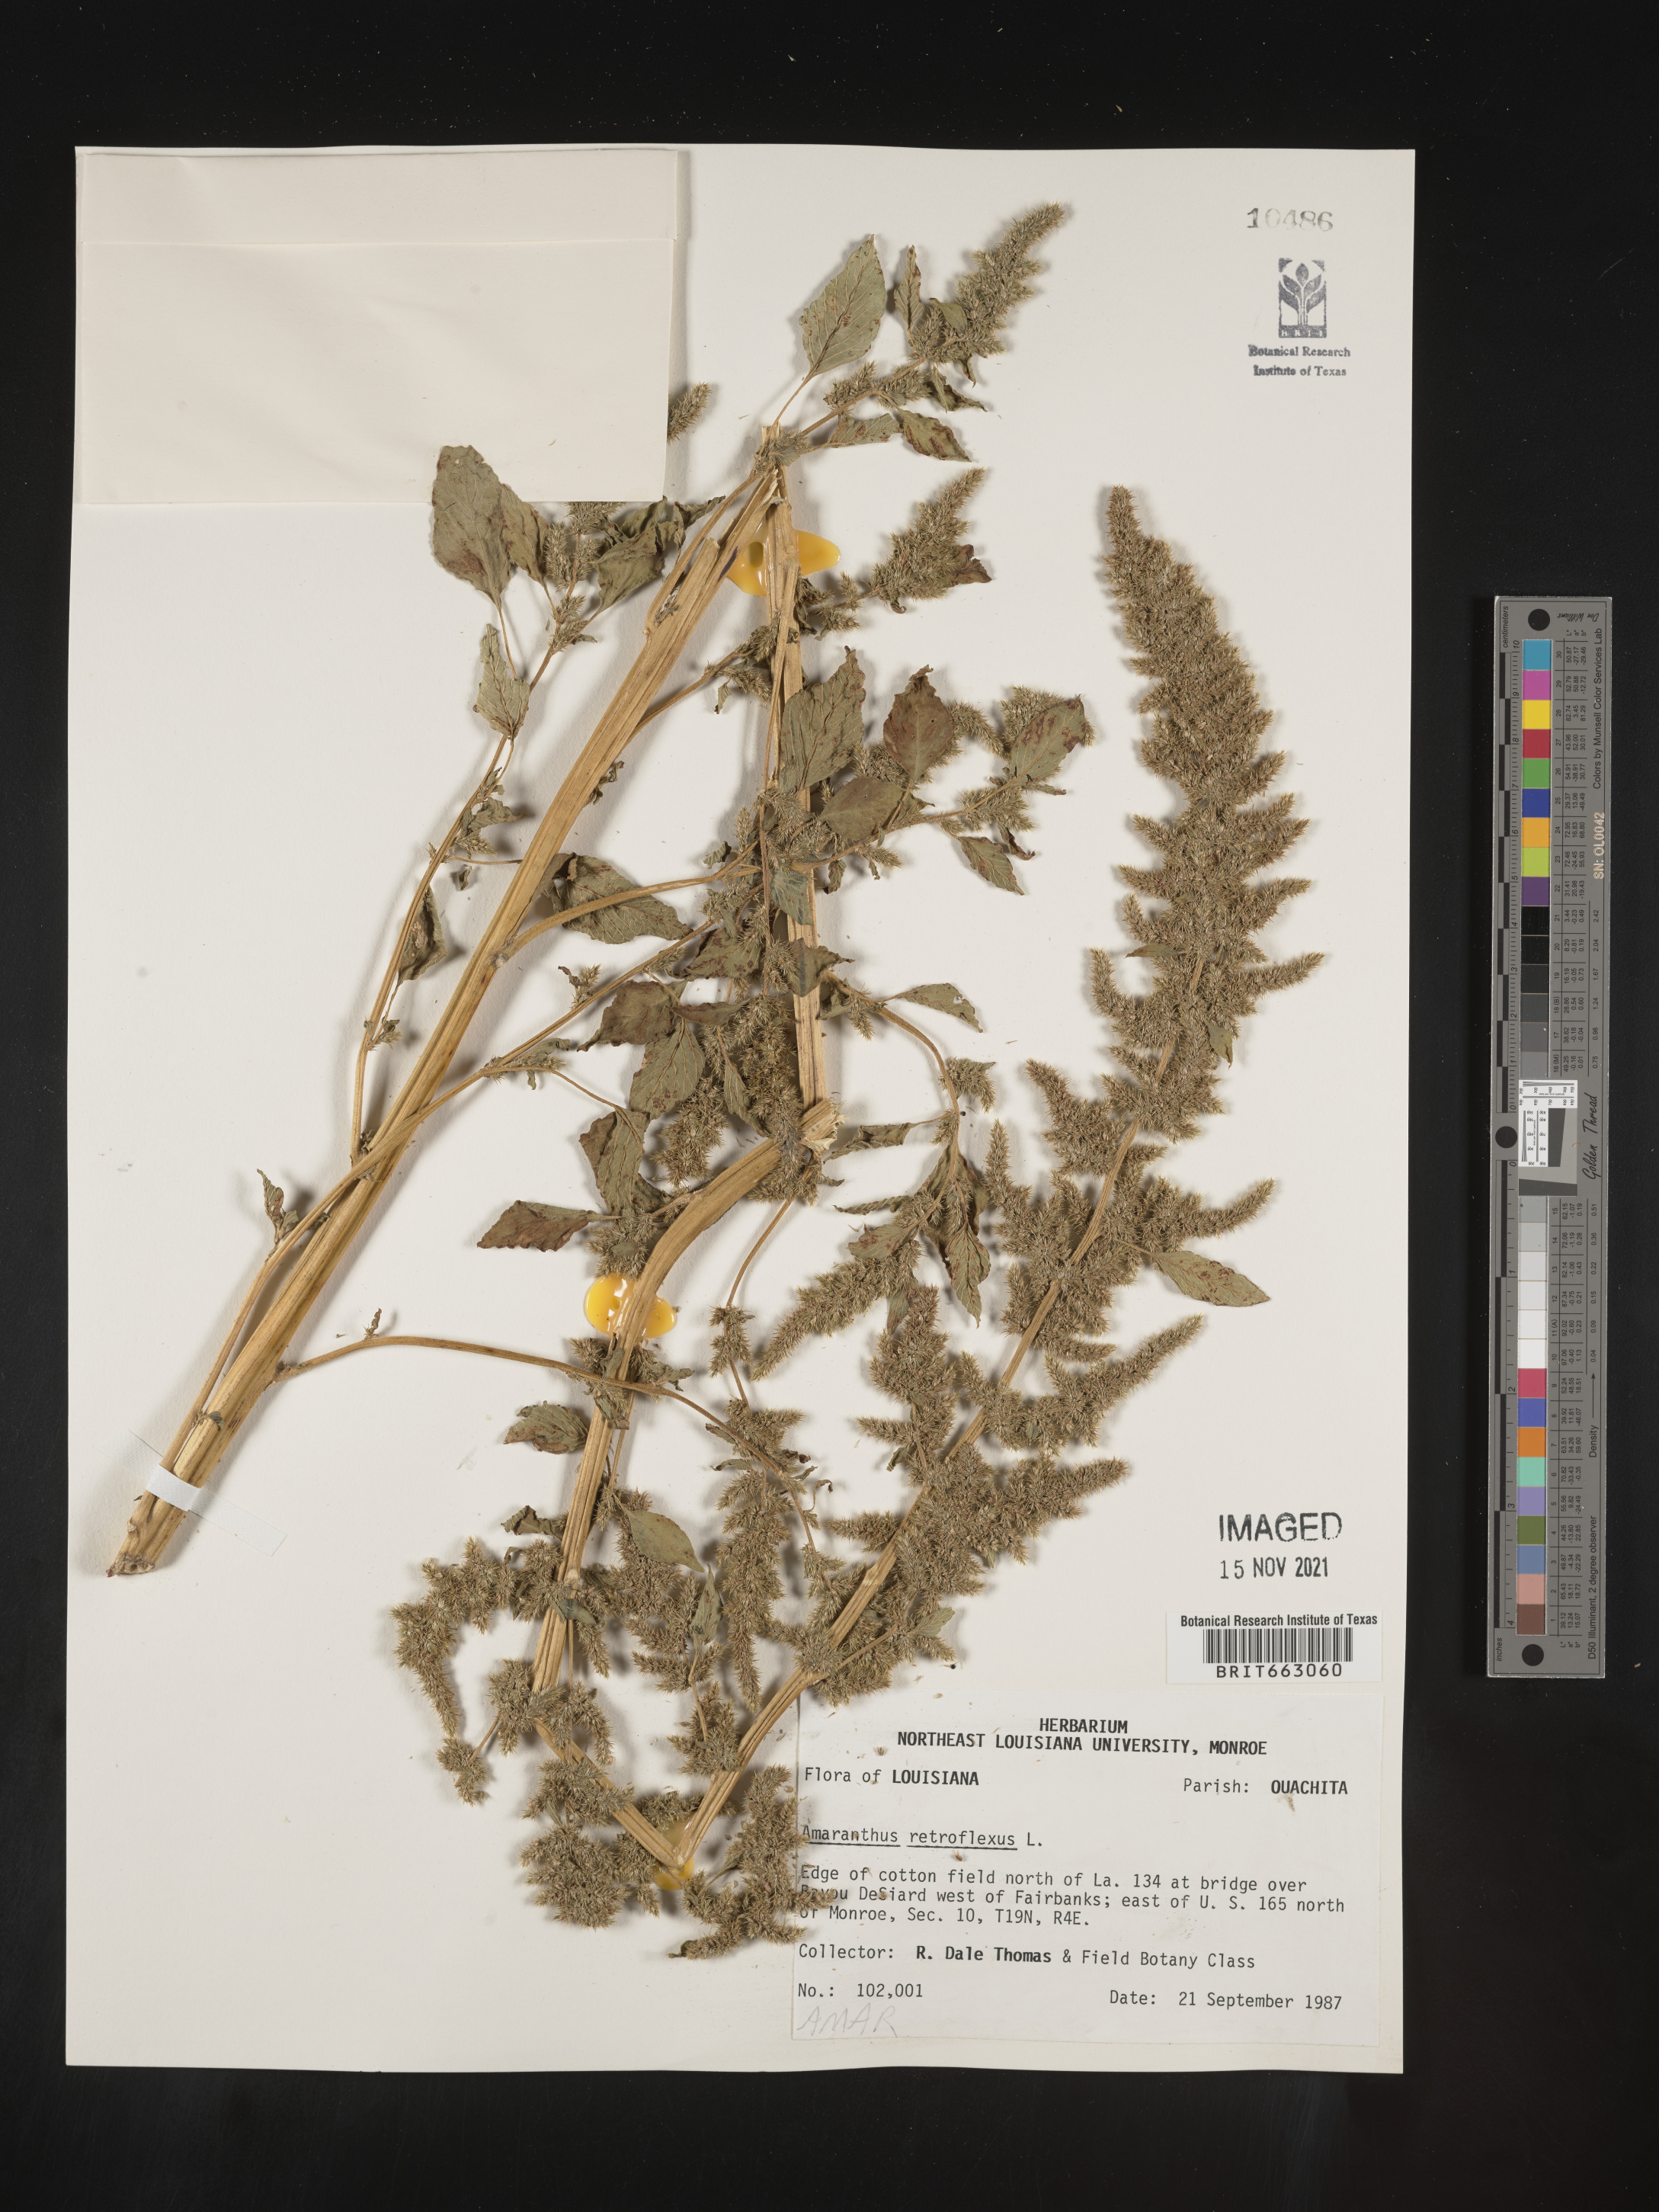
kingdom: Plantae
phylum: Tracheophyta
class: Magnoliopsida
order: Caryophyllales
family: Amaranthaceae
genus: Amaranthus
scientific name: Amaranthus retroflexus
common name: Redroot amaranth
